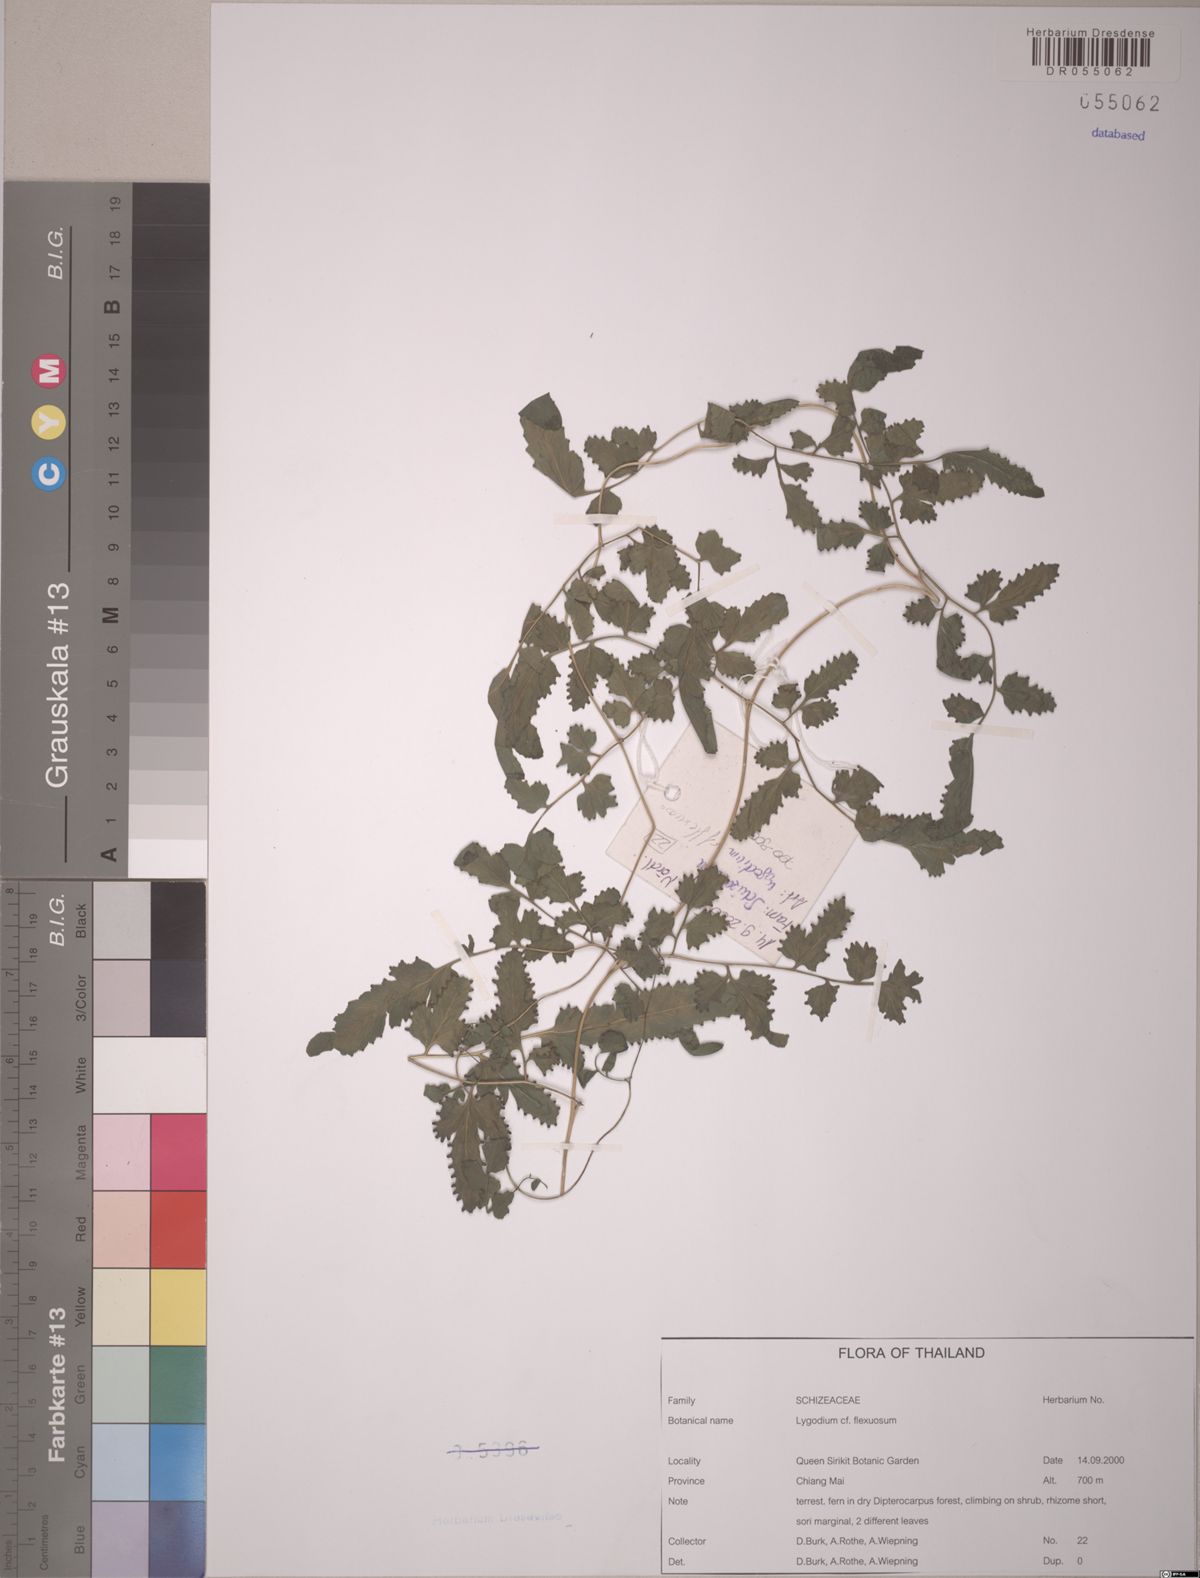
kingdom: Plantae
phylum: Tracheophyta
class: Polypodiopsida
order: Schizaeales
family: Lygodiaceae
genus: Lygodium
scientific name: Lygodium flexuosum
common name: Maidenhair creeper
